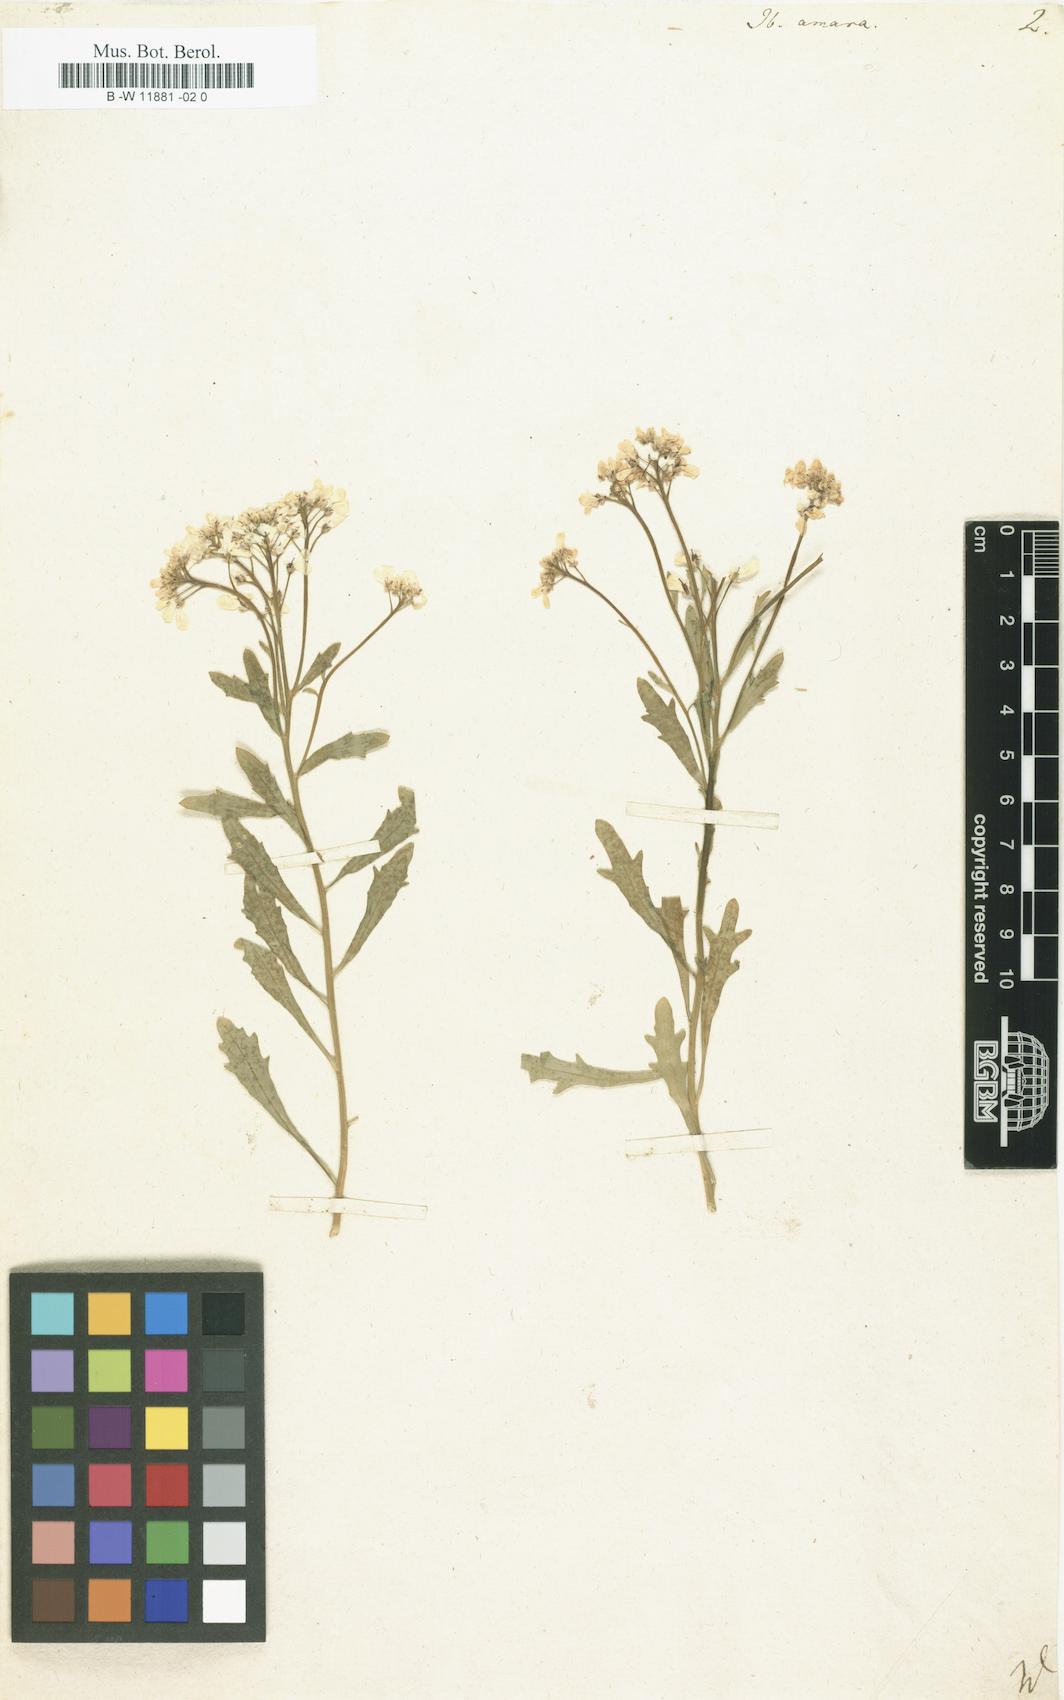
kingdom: Plantae
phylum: Tracheophyta
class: Magnoliopsida
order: Brassicales
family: Brassicaceae
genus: Iberis
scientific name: Iberis amara
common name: Annual candytuft
